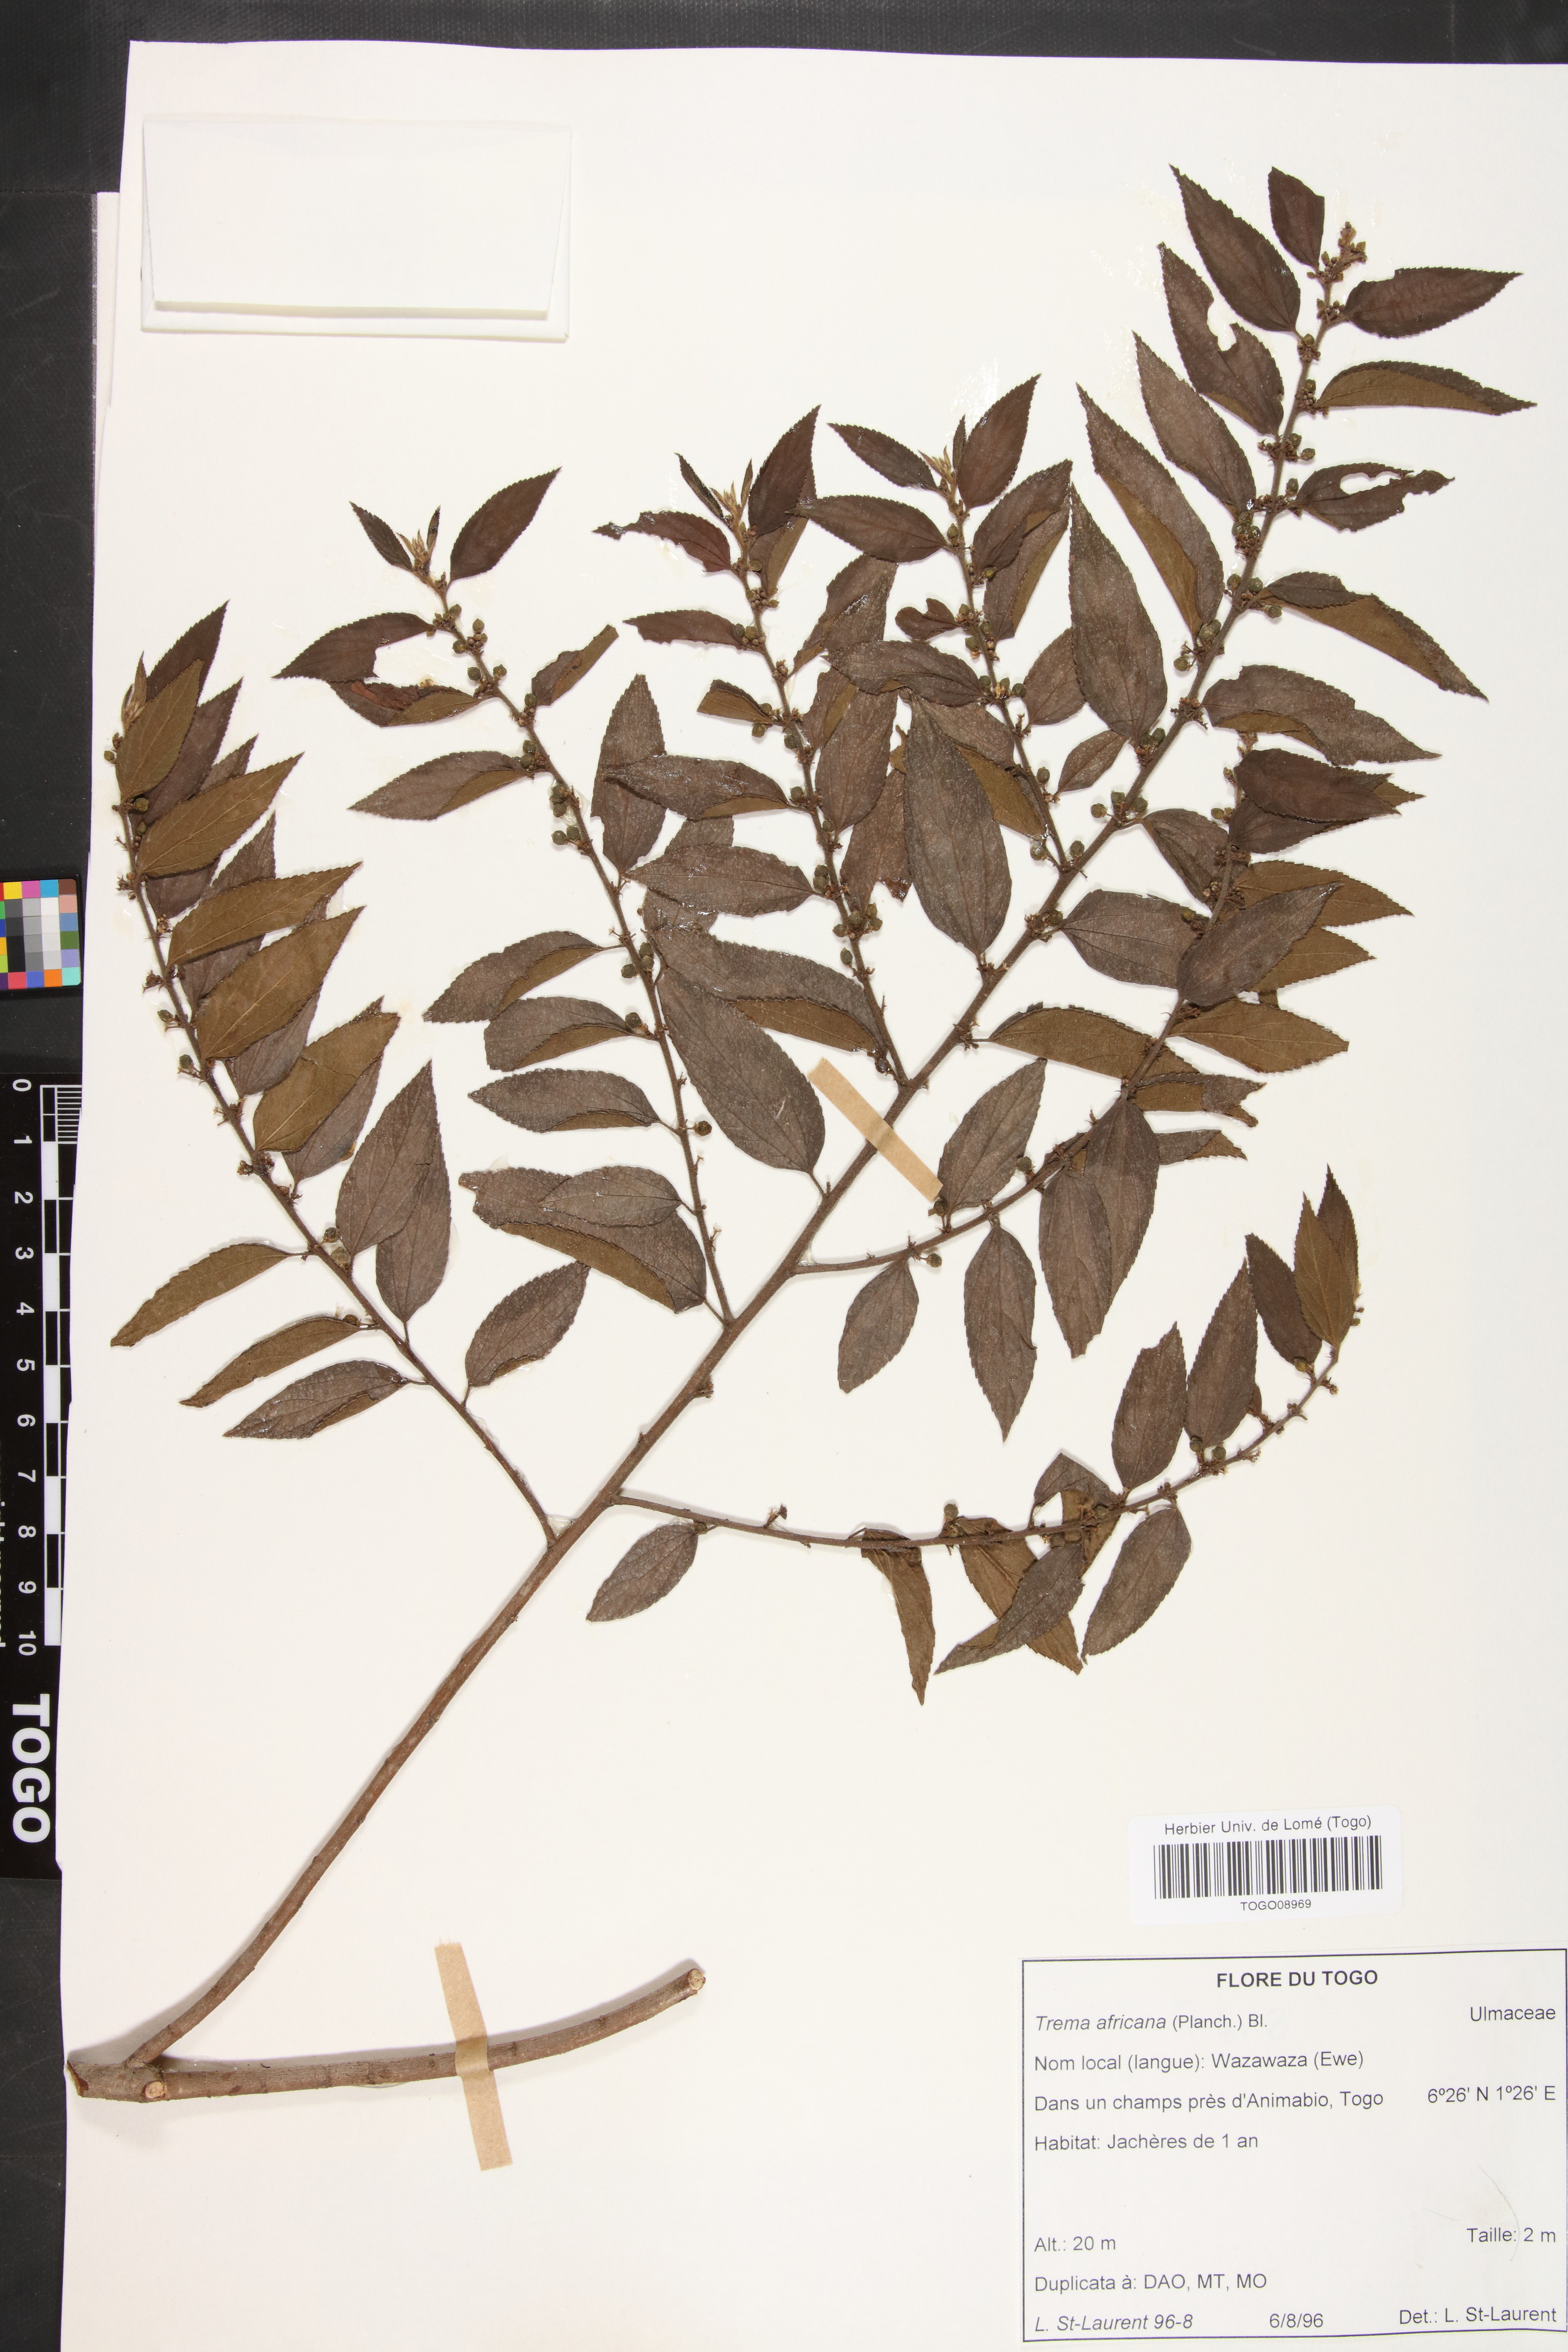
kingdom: Plantae
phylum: Tracheophyta
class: Magnoliopsida
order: Rosales
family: Cannabaceae
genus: Trema
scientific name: Trema orientale
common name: Indian charcoal tree
